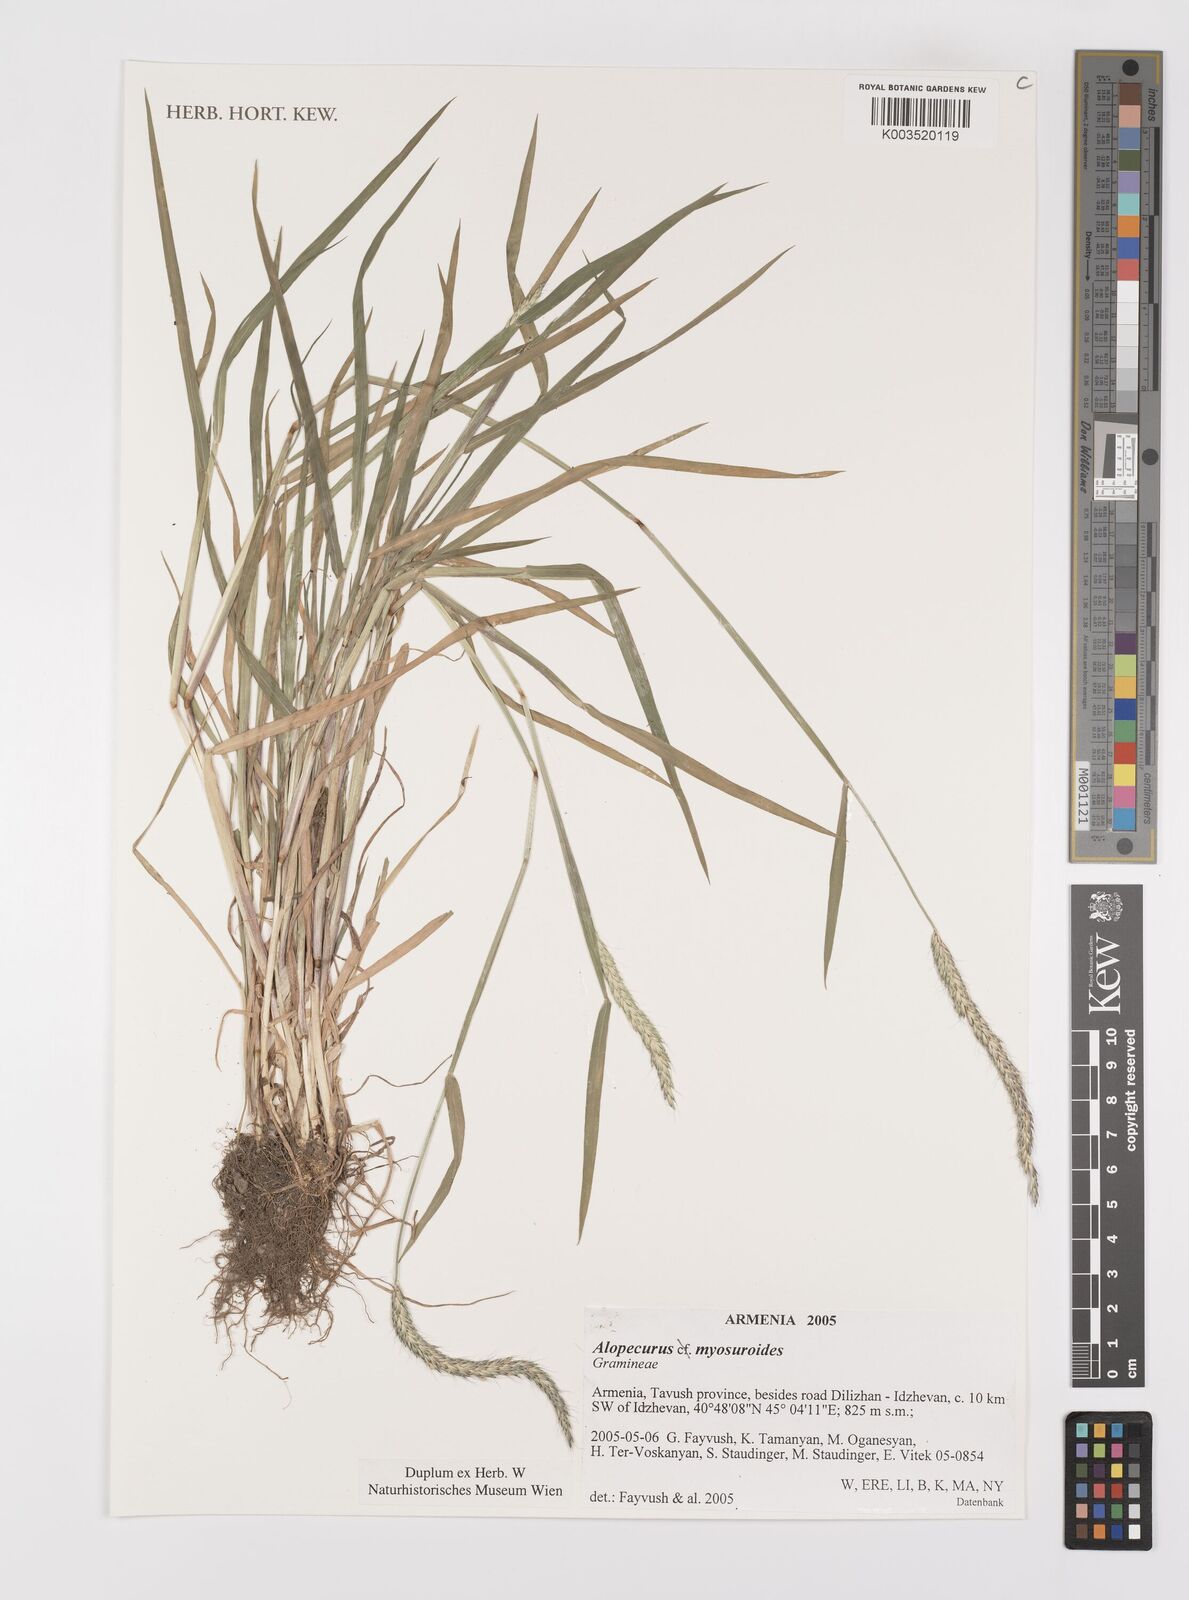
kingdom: Plantae
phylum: Tracheophyta
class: Liliopsida
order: Poales
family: Poaceae
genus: Alopecurus
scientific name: Alopecurus myosuroides
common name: Black-grass
